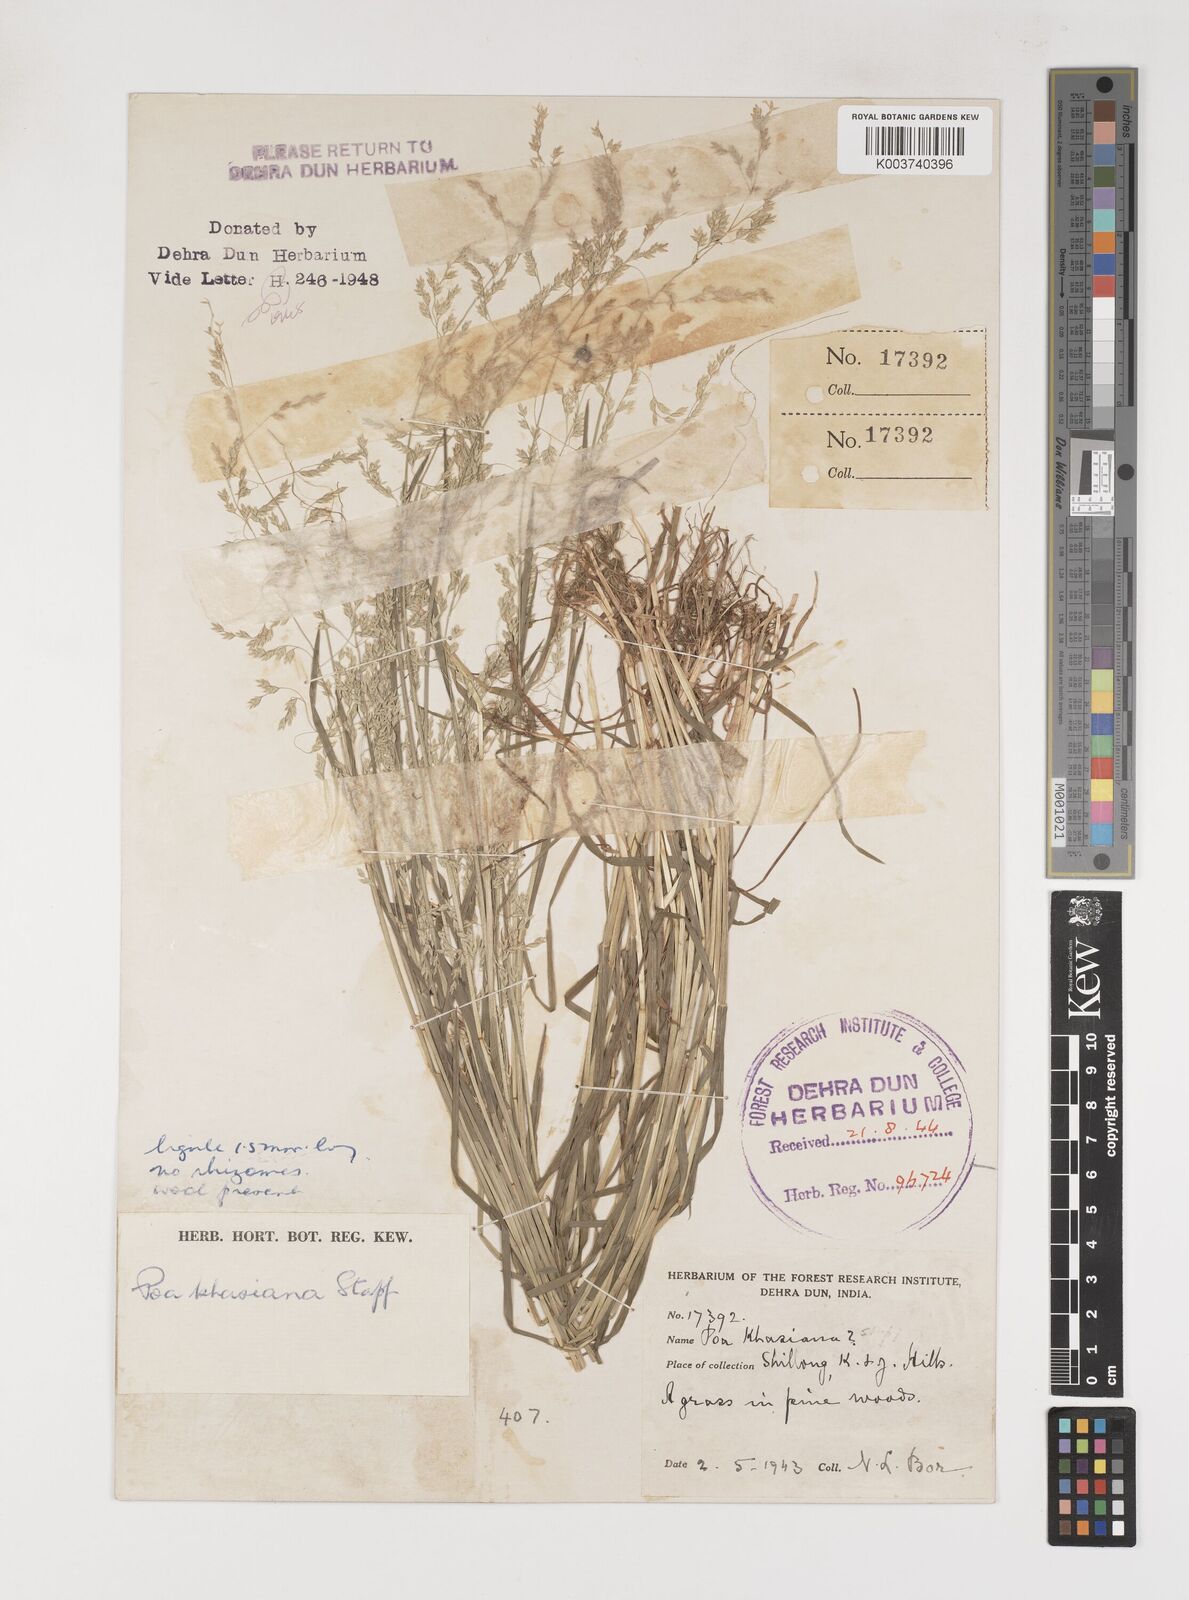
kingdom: Plantae
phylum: Tracheophyta
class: Liliopsida
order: Poales
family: Poaceae
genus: Poa
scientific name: Poa khasiana
